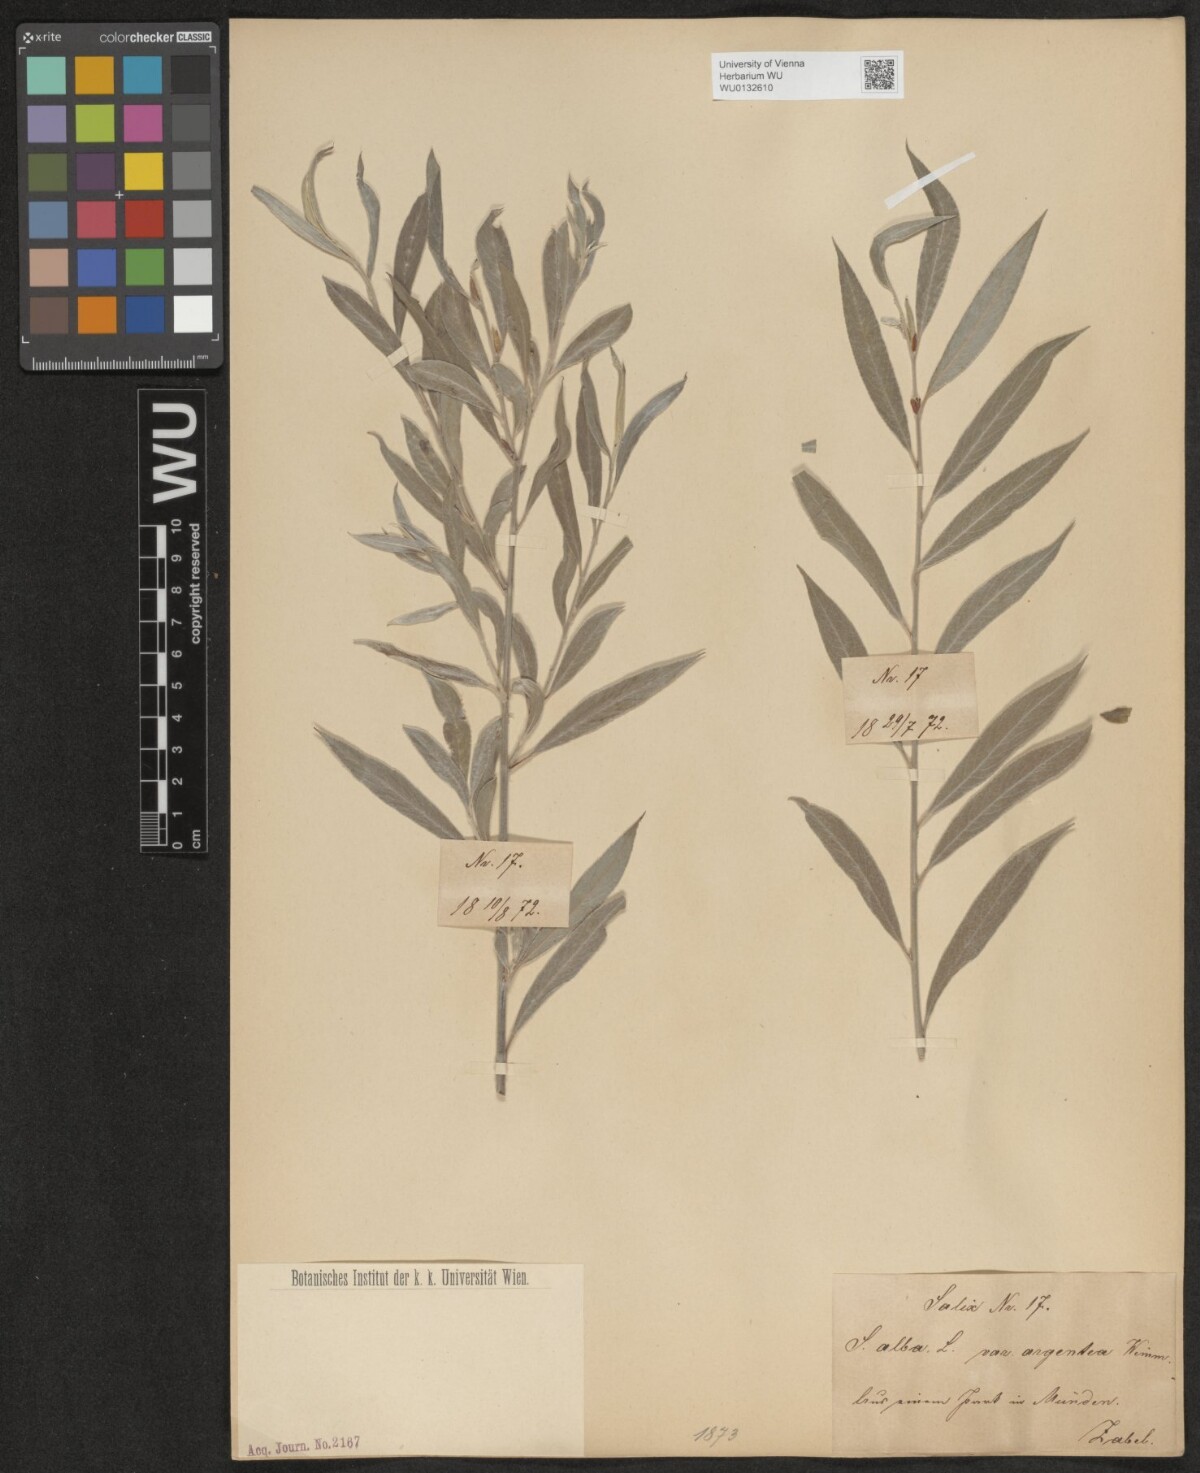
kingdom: Plantae
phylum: Tracheophyta
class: Magnoliopsida
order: Malpighiales
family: Salicaceae
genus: Salix
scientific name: Salix alba
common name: White willow
